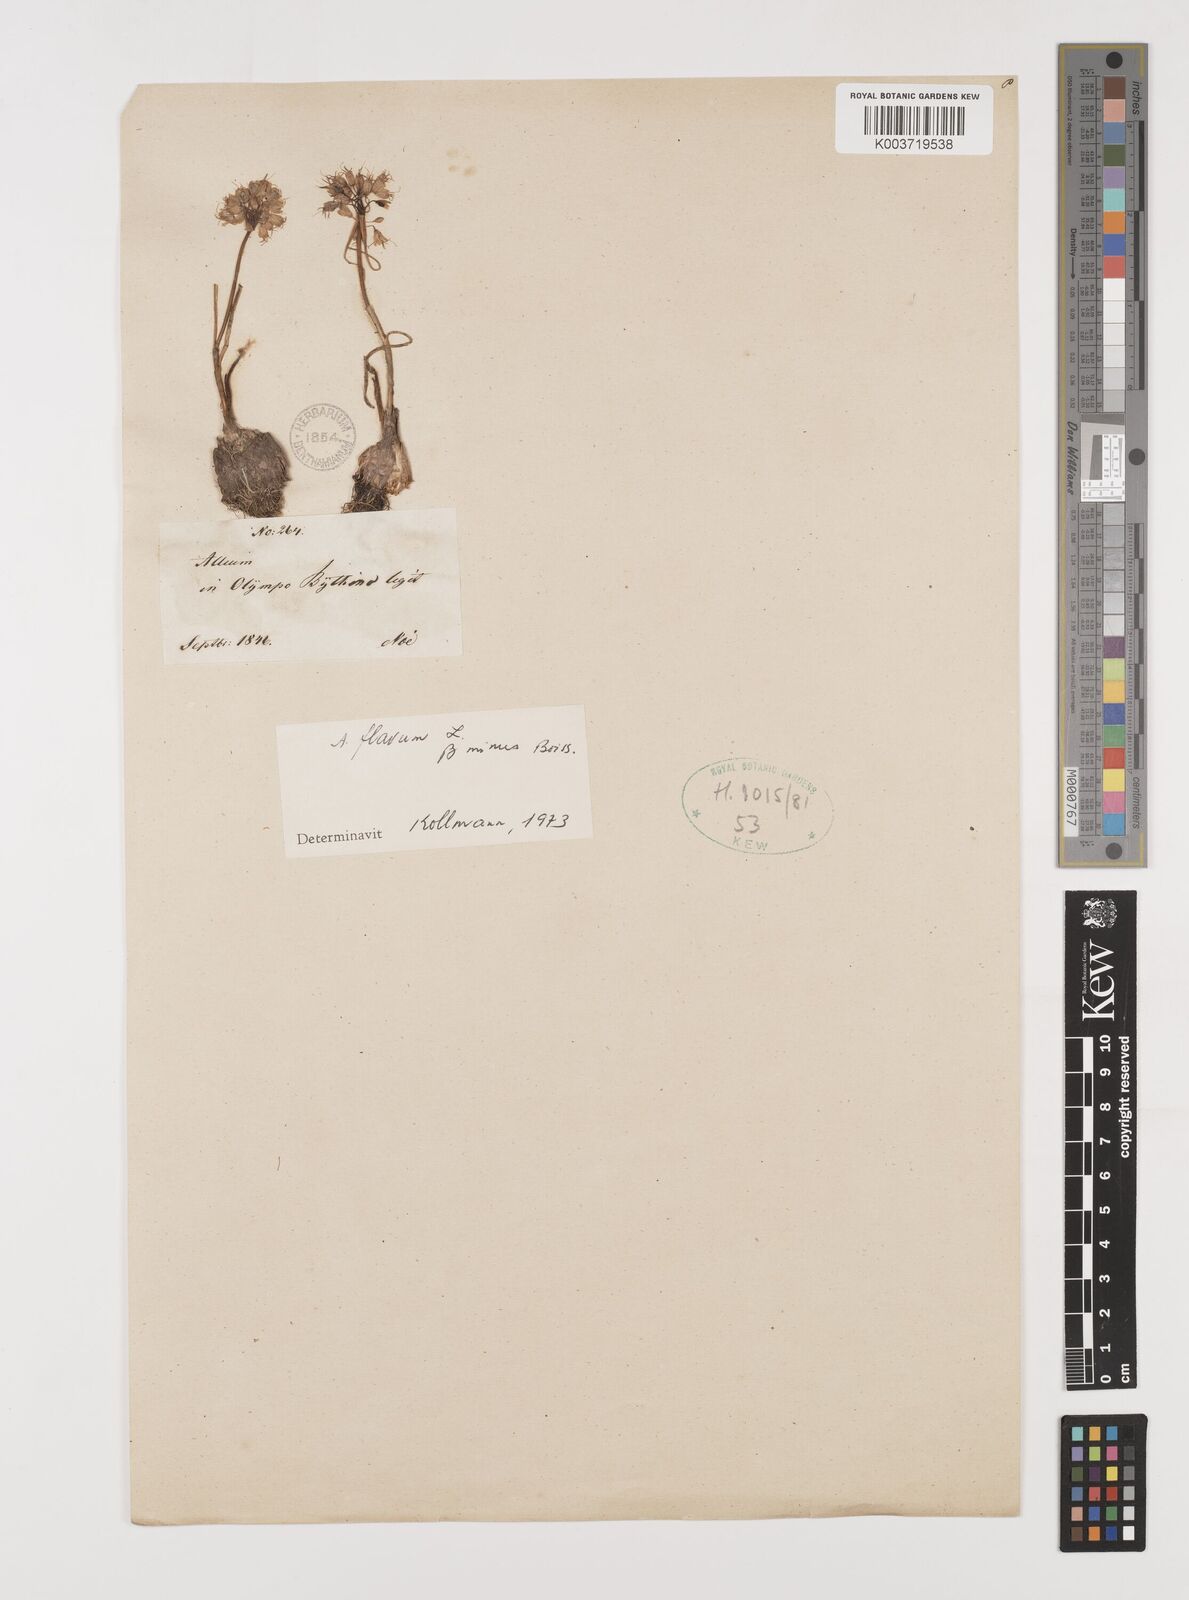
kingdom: Plantae
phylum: Tracheophyta
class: Liliopsida
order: Asparagales
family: Amaryllidaceae
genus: Allium
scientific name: Allium flavum
